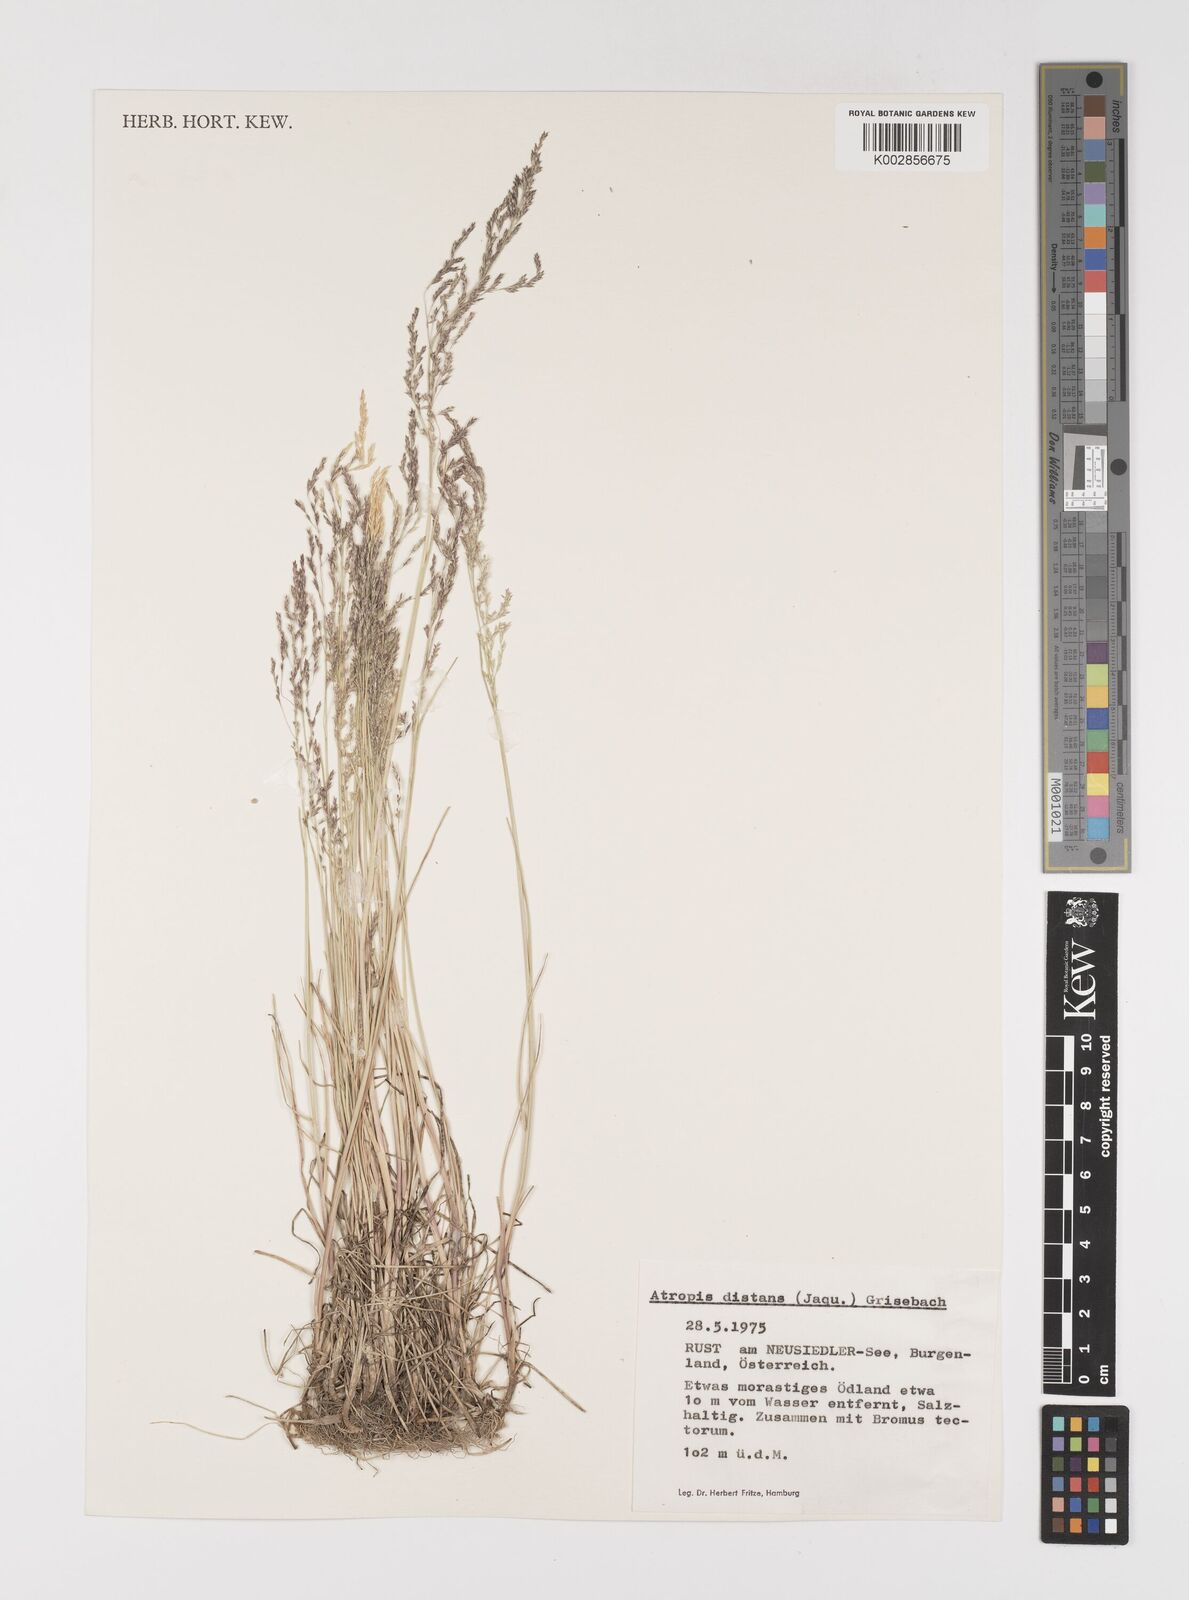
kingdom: Plantae
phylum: Tracheophyta
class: Liliopsida
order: Poales
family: Poaceae
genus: Puccinellia
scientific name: Puccinellia
